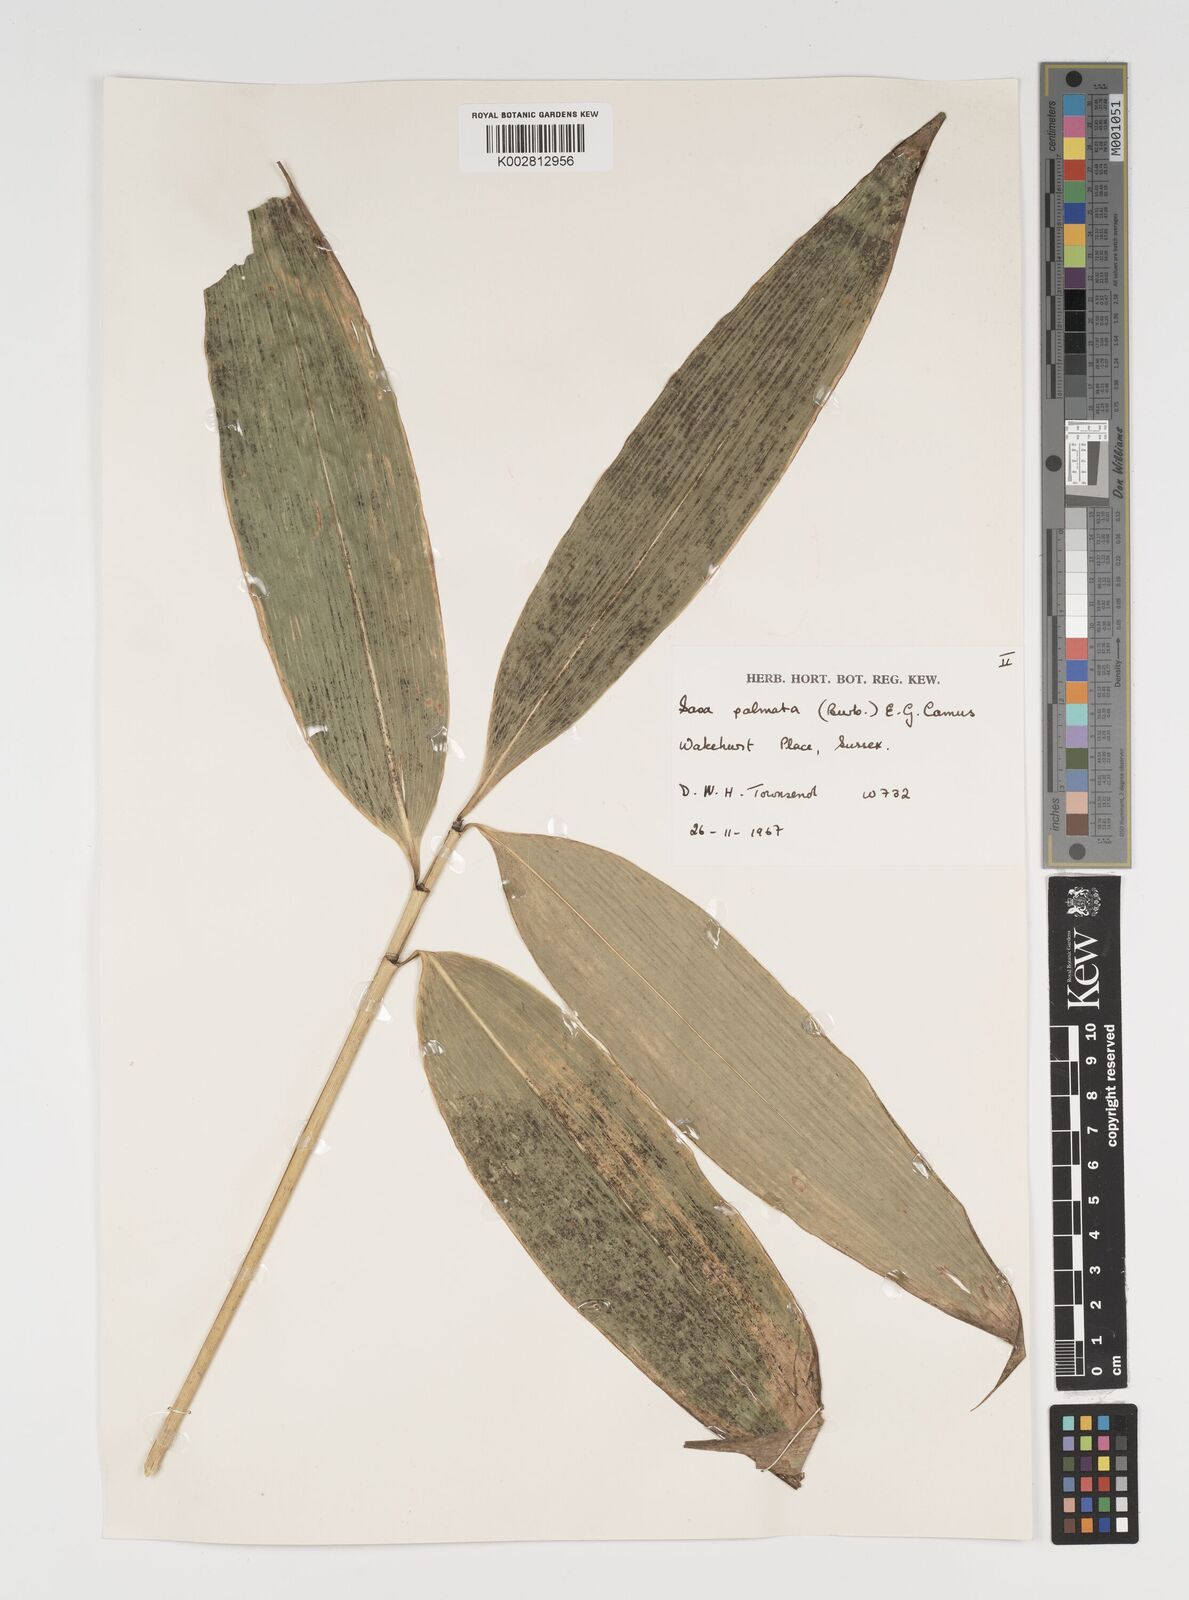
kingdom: Plantae
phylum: Tracheophyta
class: Liliopsida
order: Poales
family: Poaceae
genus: Sasa
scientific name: Sasa palmata
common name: Broad-leaved bamboo
